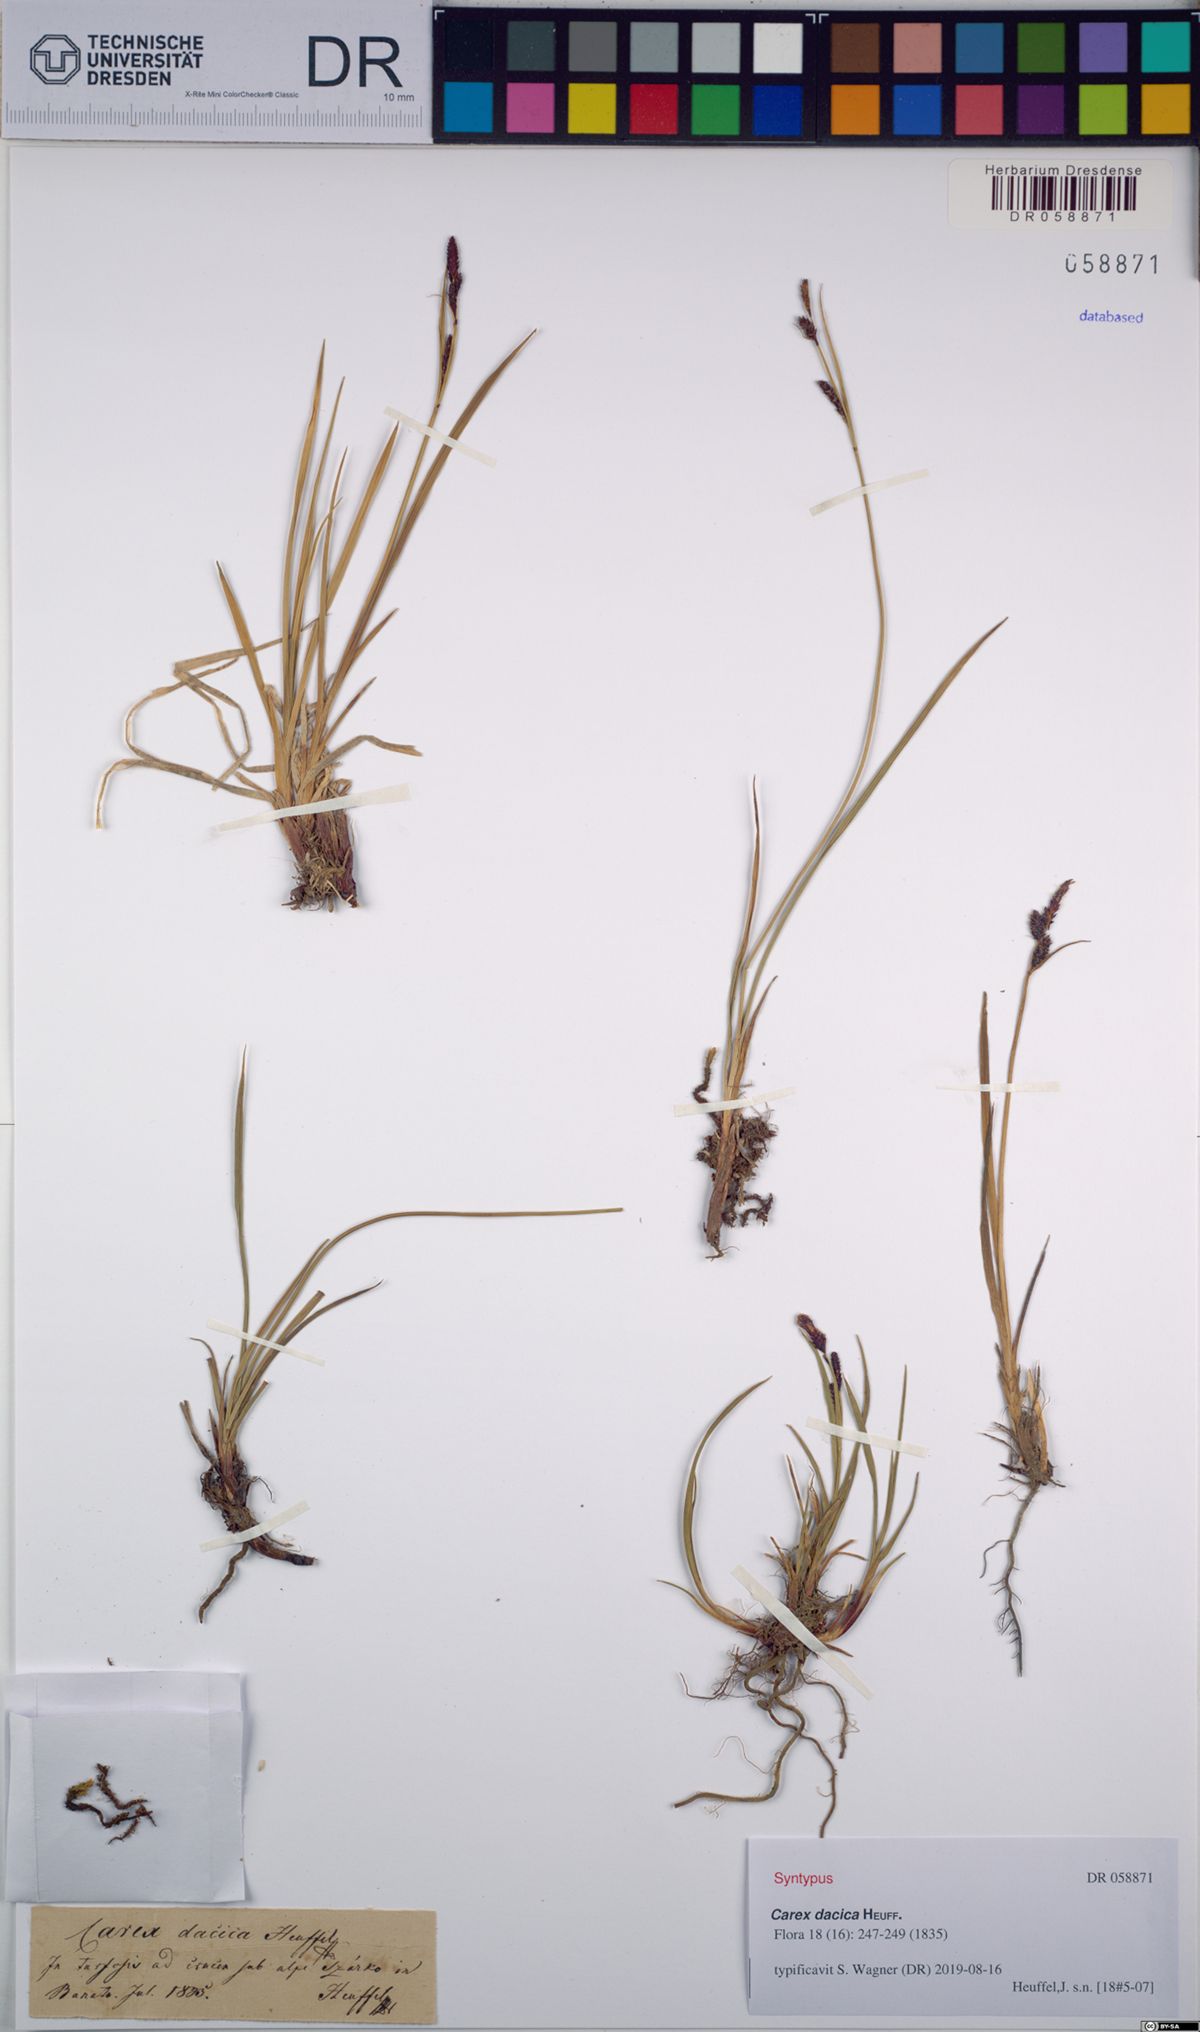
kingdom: Plantae
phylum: Tracheophyta
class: Liliopsida
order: Poales
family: Cyperaceae
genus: Carex
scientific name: Carex dacica
